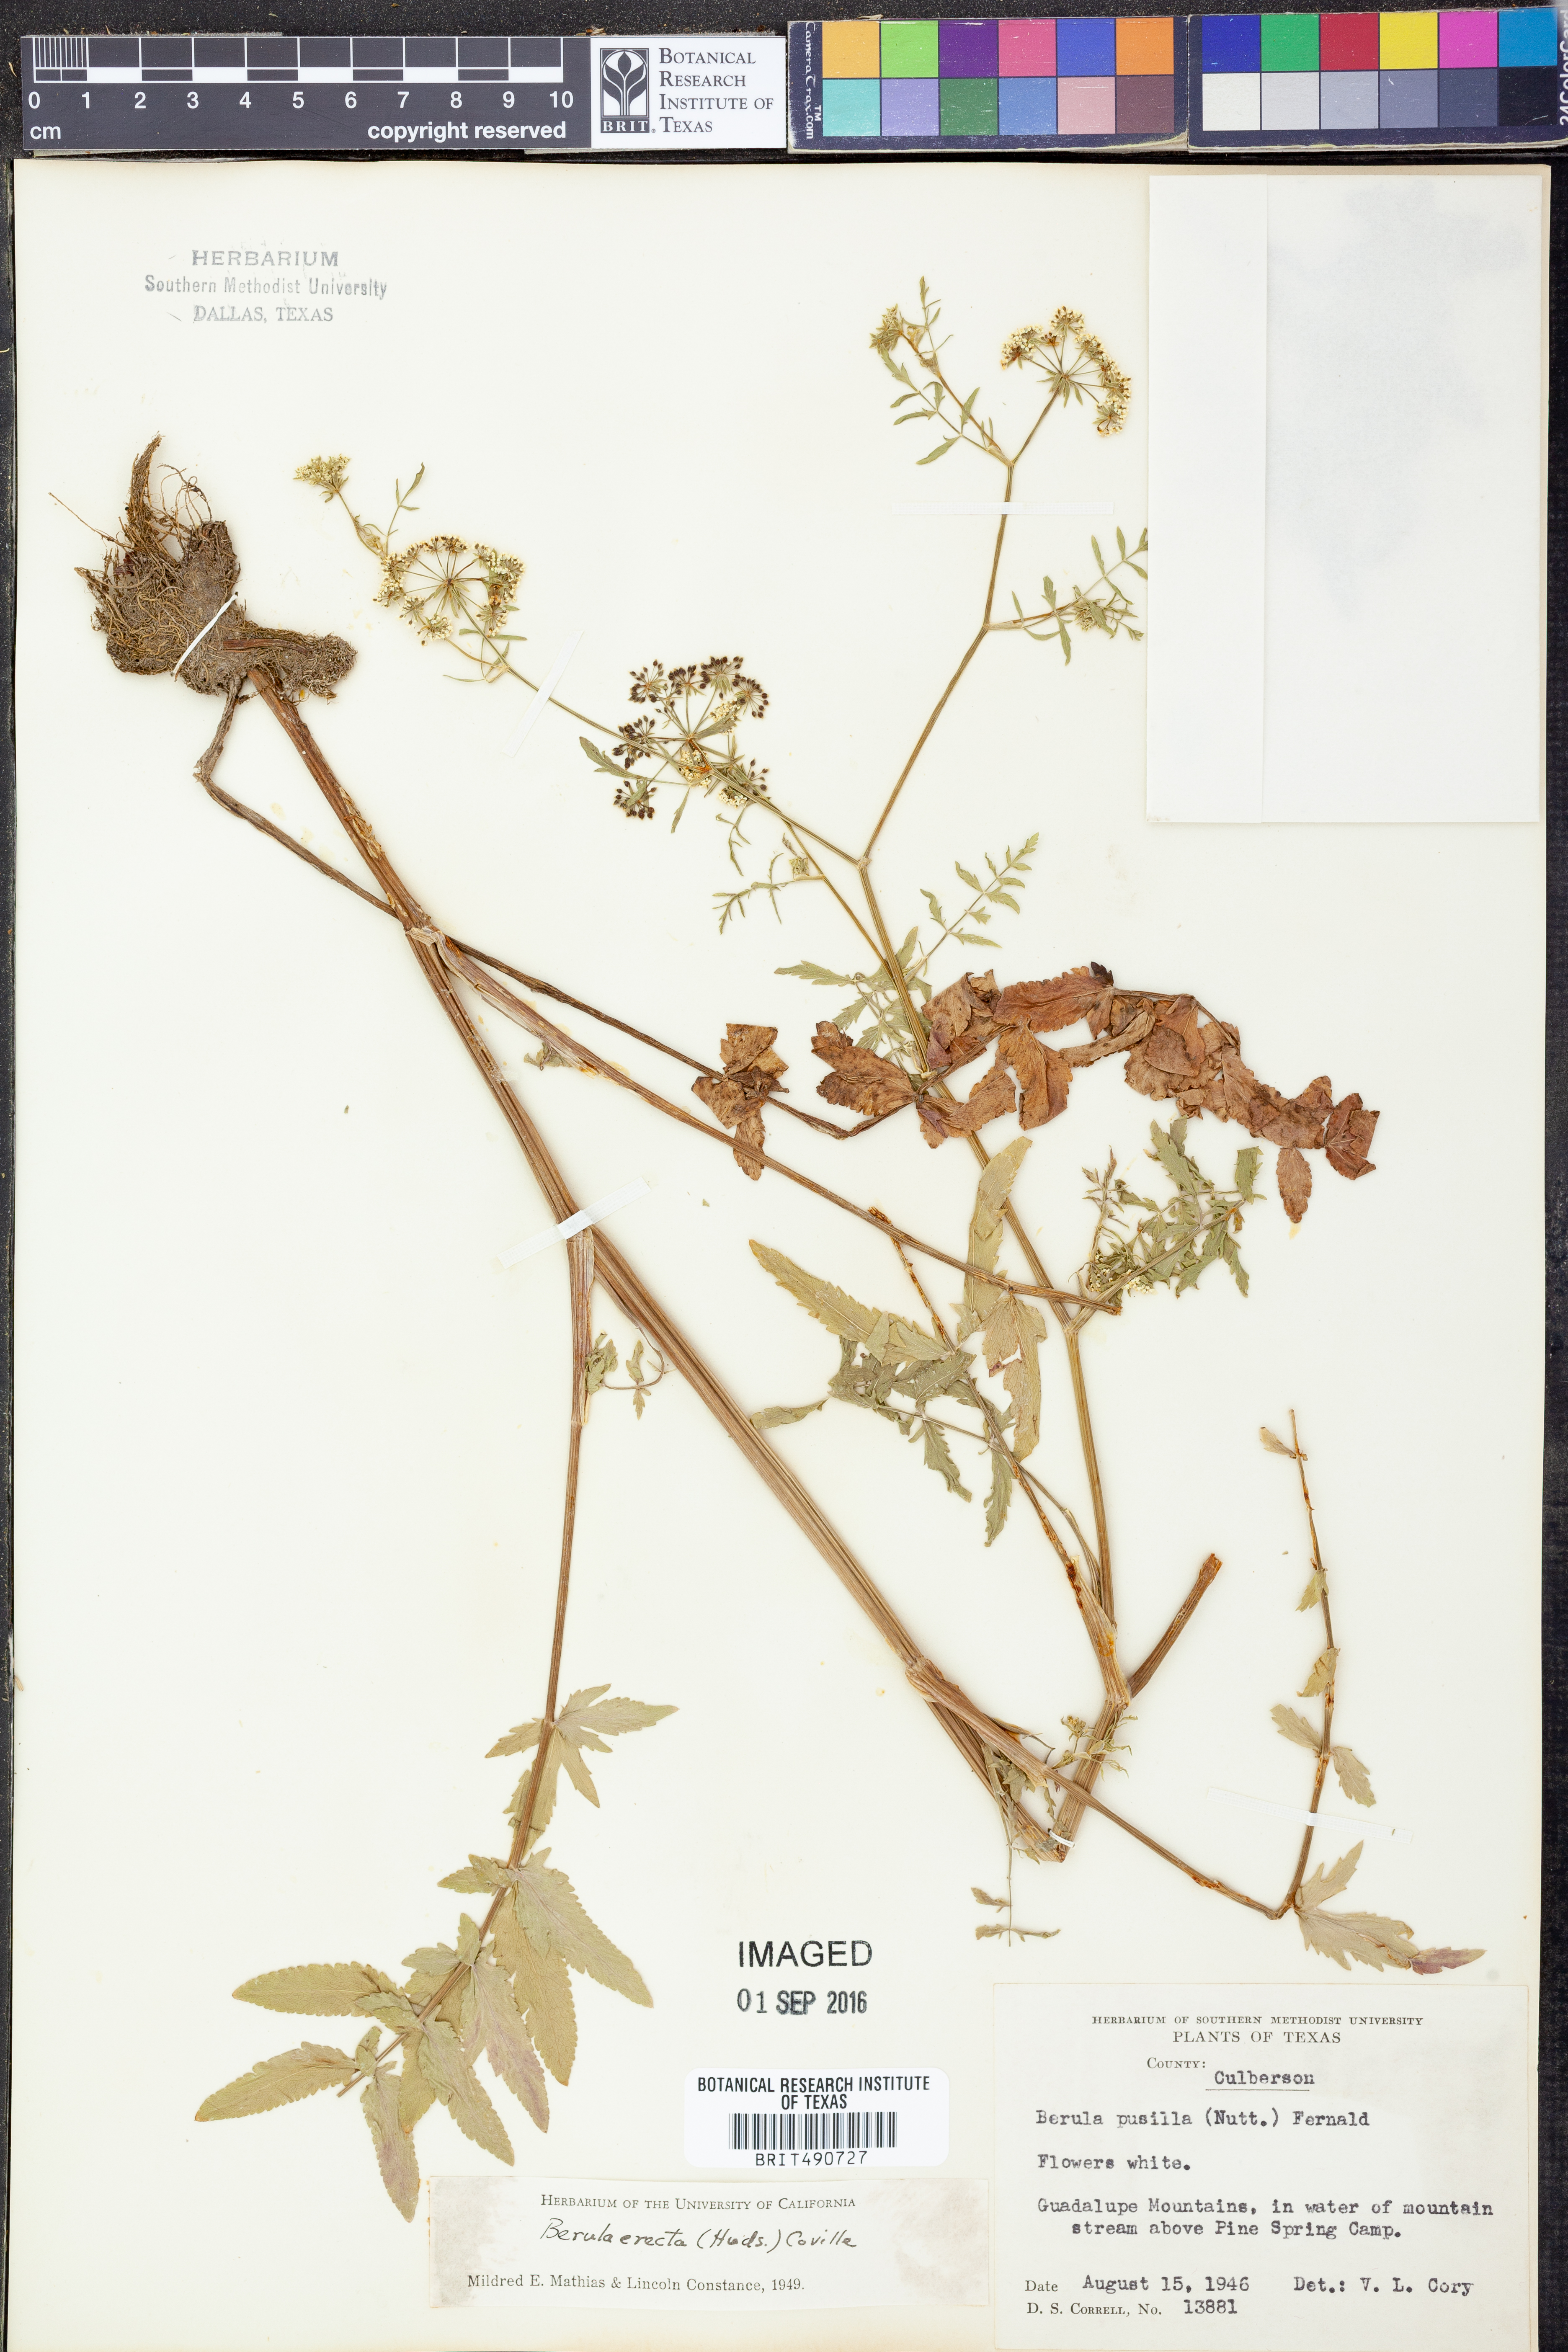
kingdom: Plantae
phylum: Tracheophyta
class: Magnoliopsida
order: Apiales
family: Apiaceae
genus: Berula
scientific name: Berula erecta
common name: Lesser water-parsnip
